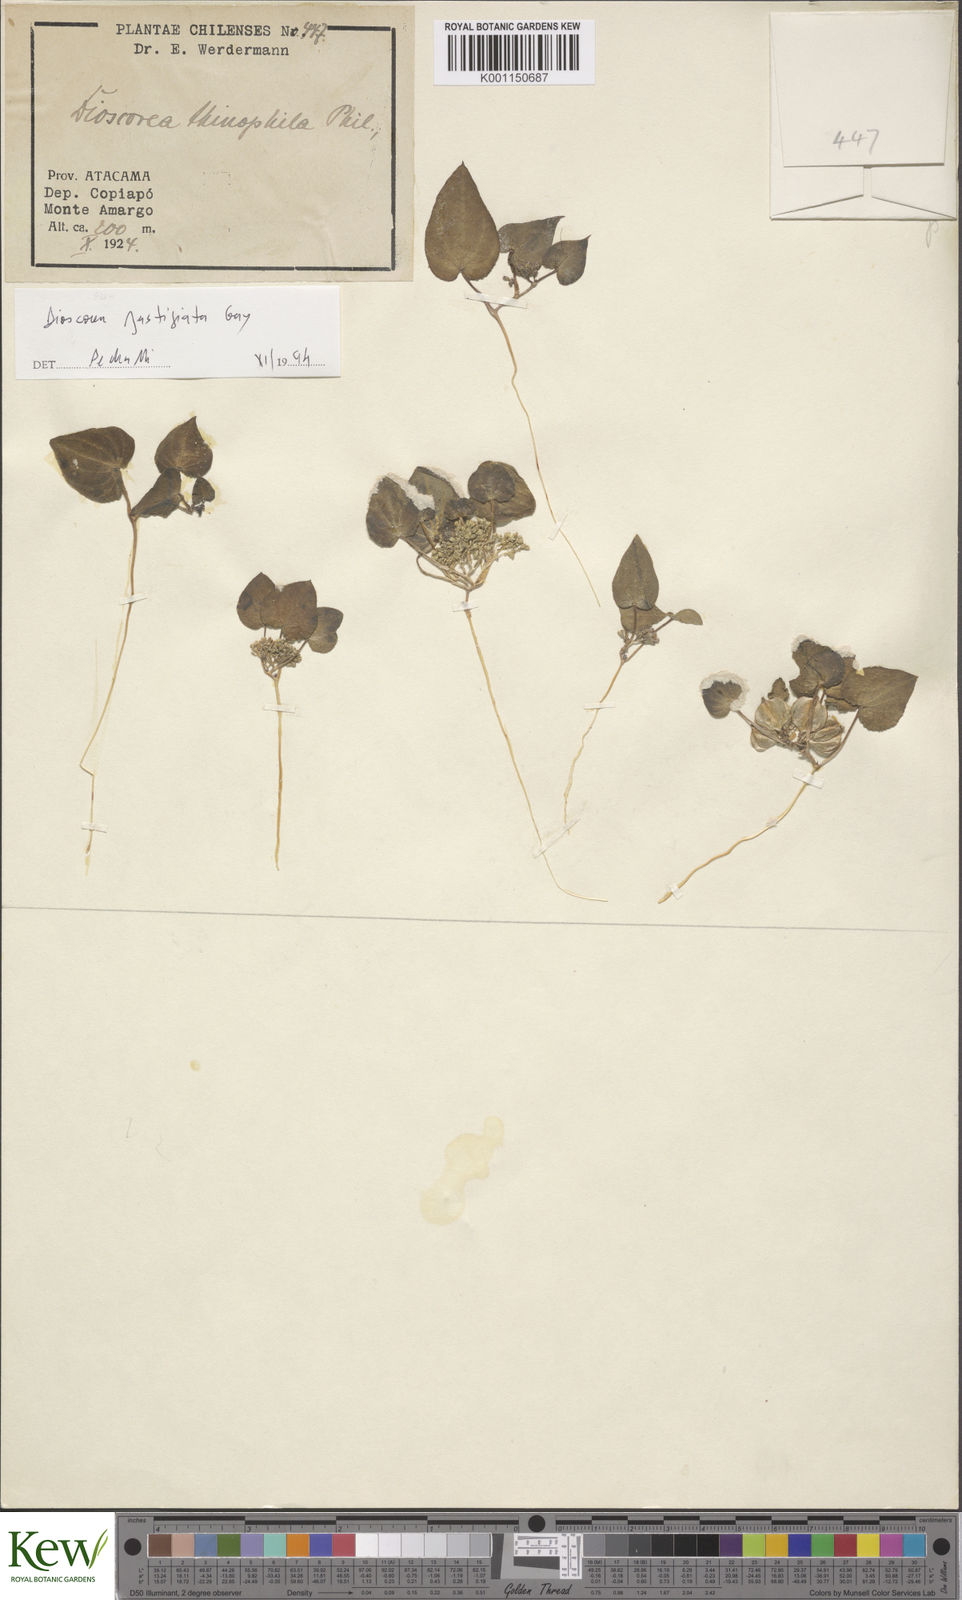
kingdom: Plantae
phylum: Tracheophyta
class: Liliopsida
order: Dioscoreales
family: Dioscoreaceae
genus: Dioscorea
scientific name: Dioscorea fastigiata
